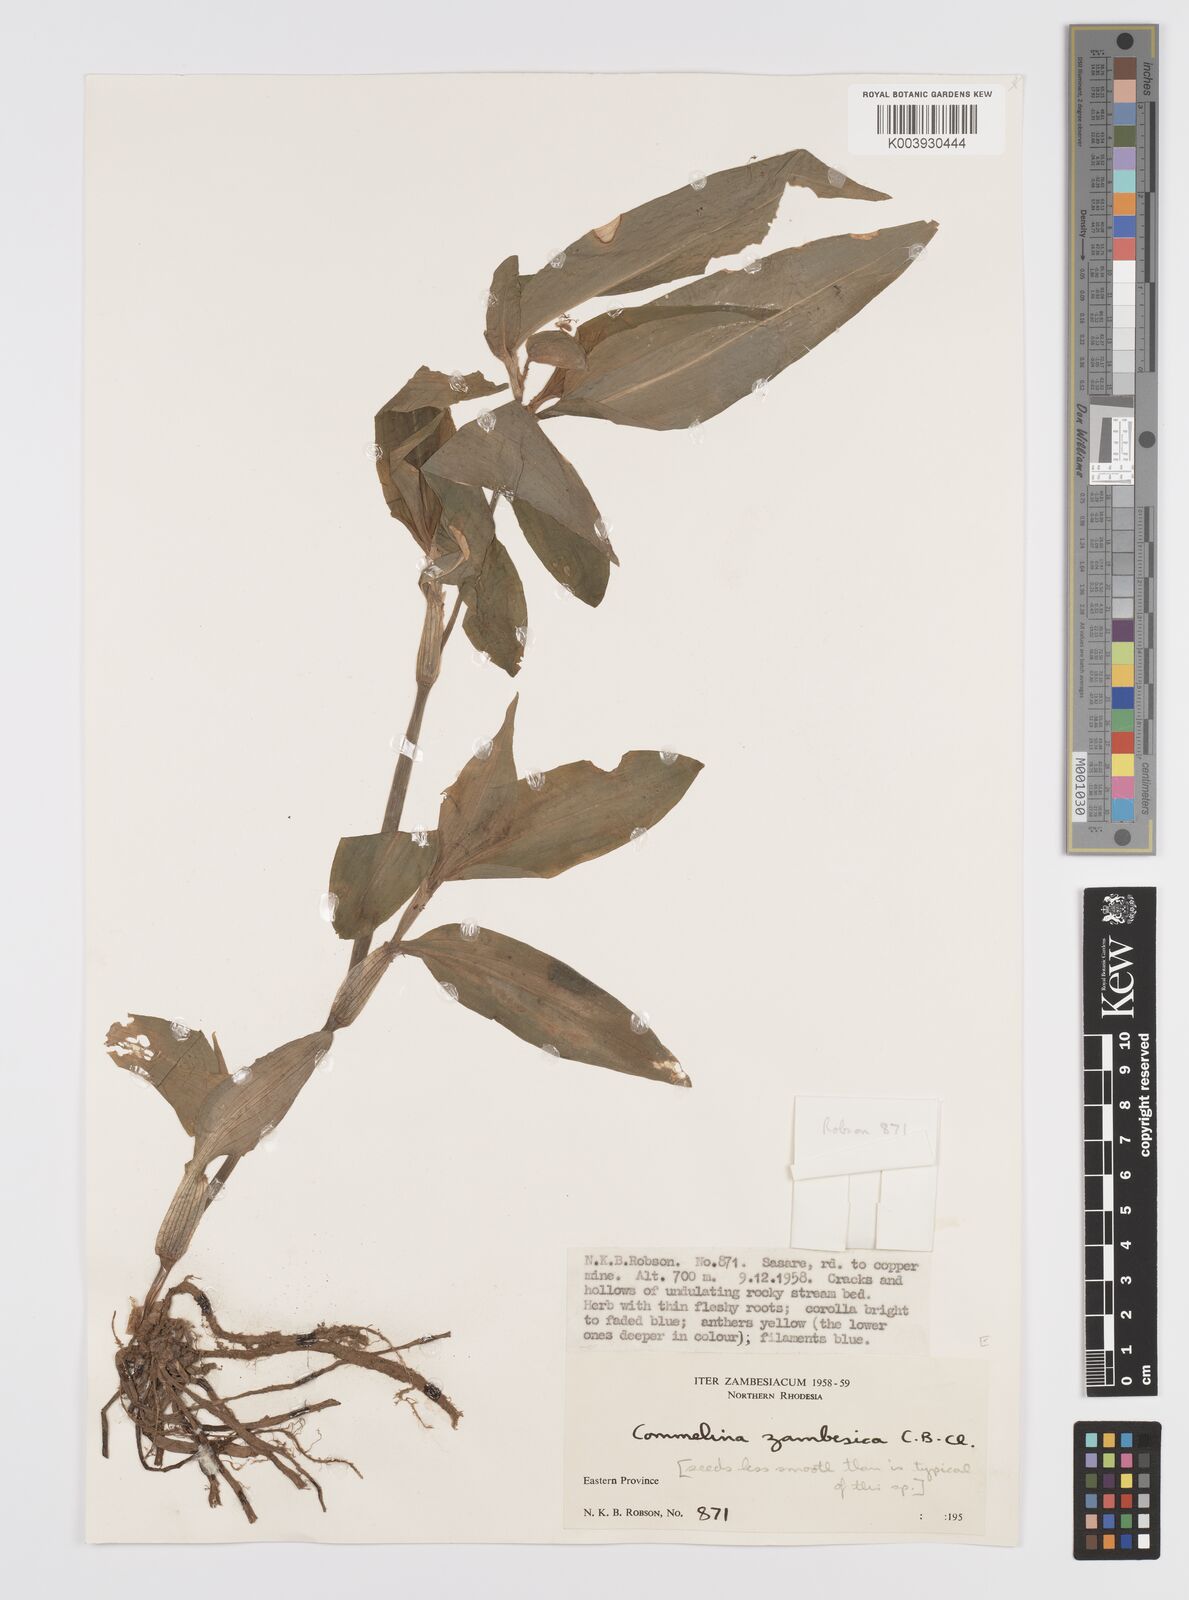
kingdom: Plantae
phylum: Tracheophyta
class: Liliopsida
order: Commelinales
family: Commelinaceae
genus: Commelina
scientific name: Commelina zambesica
